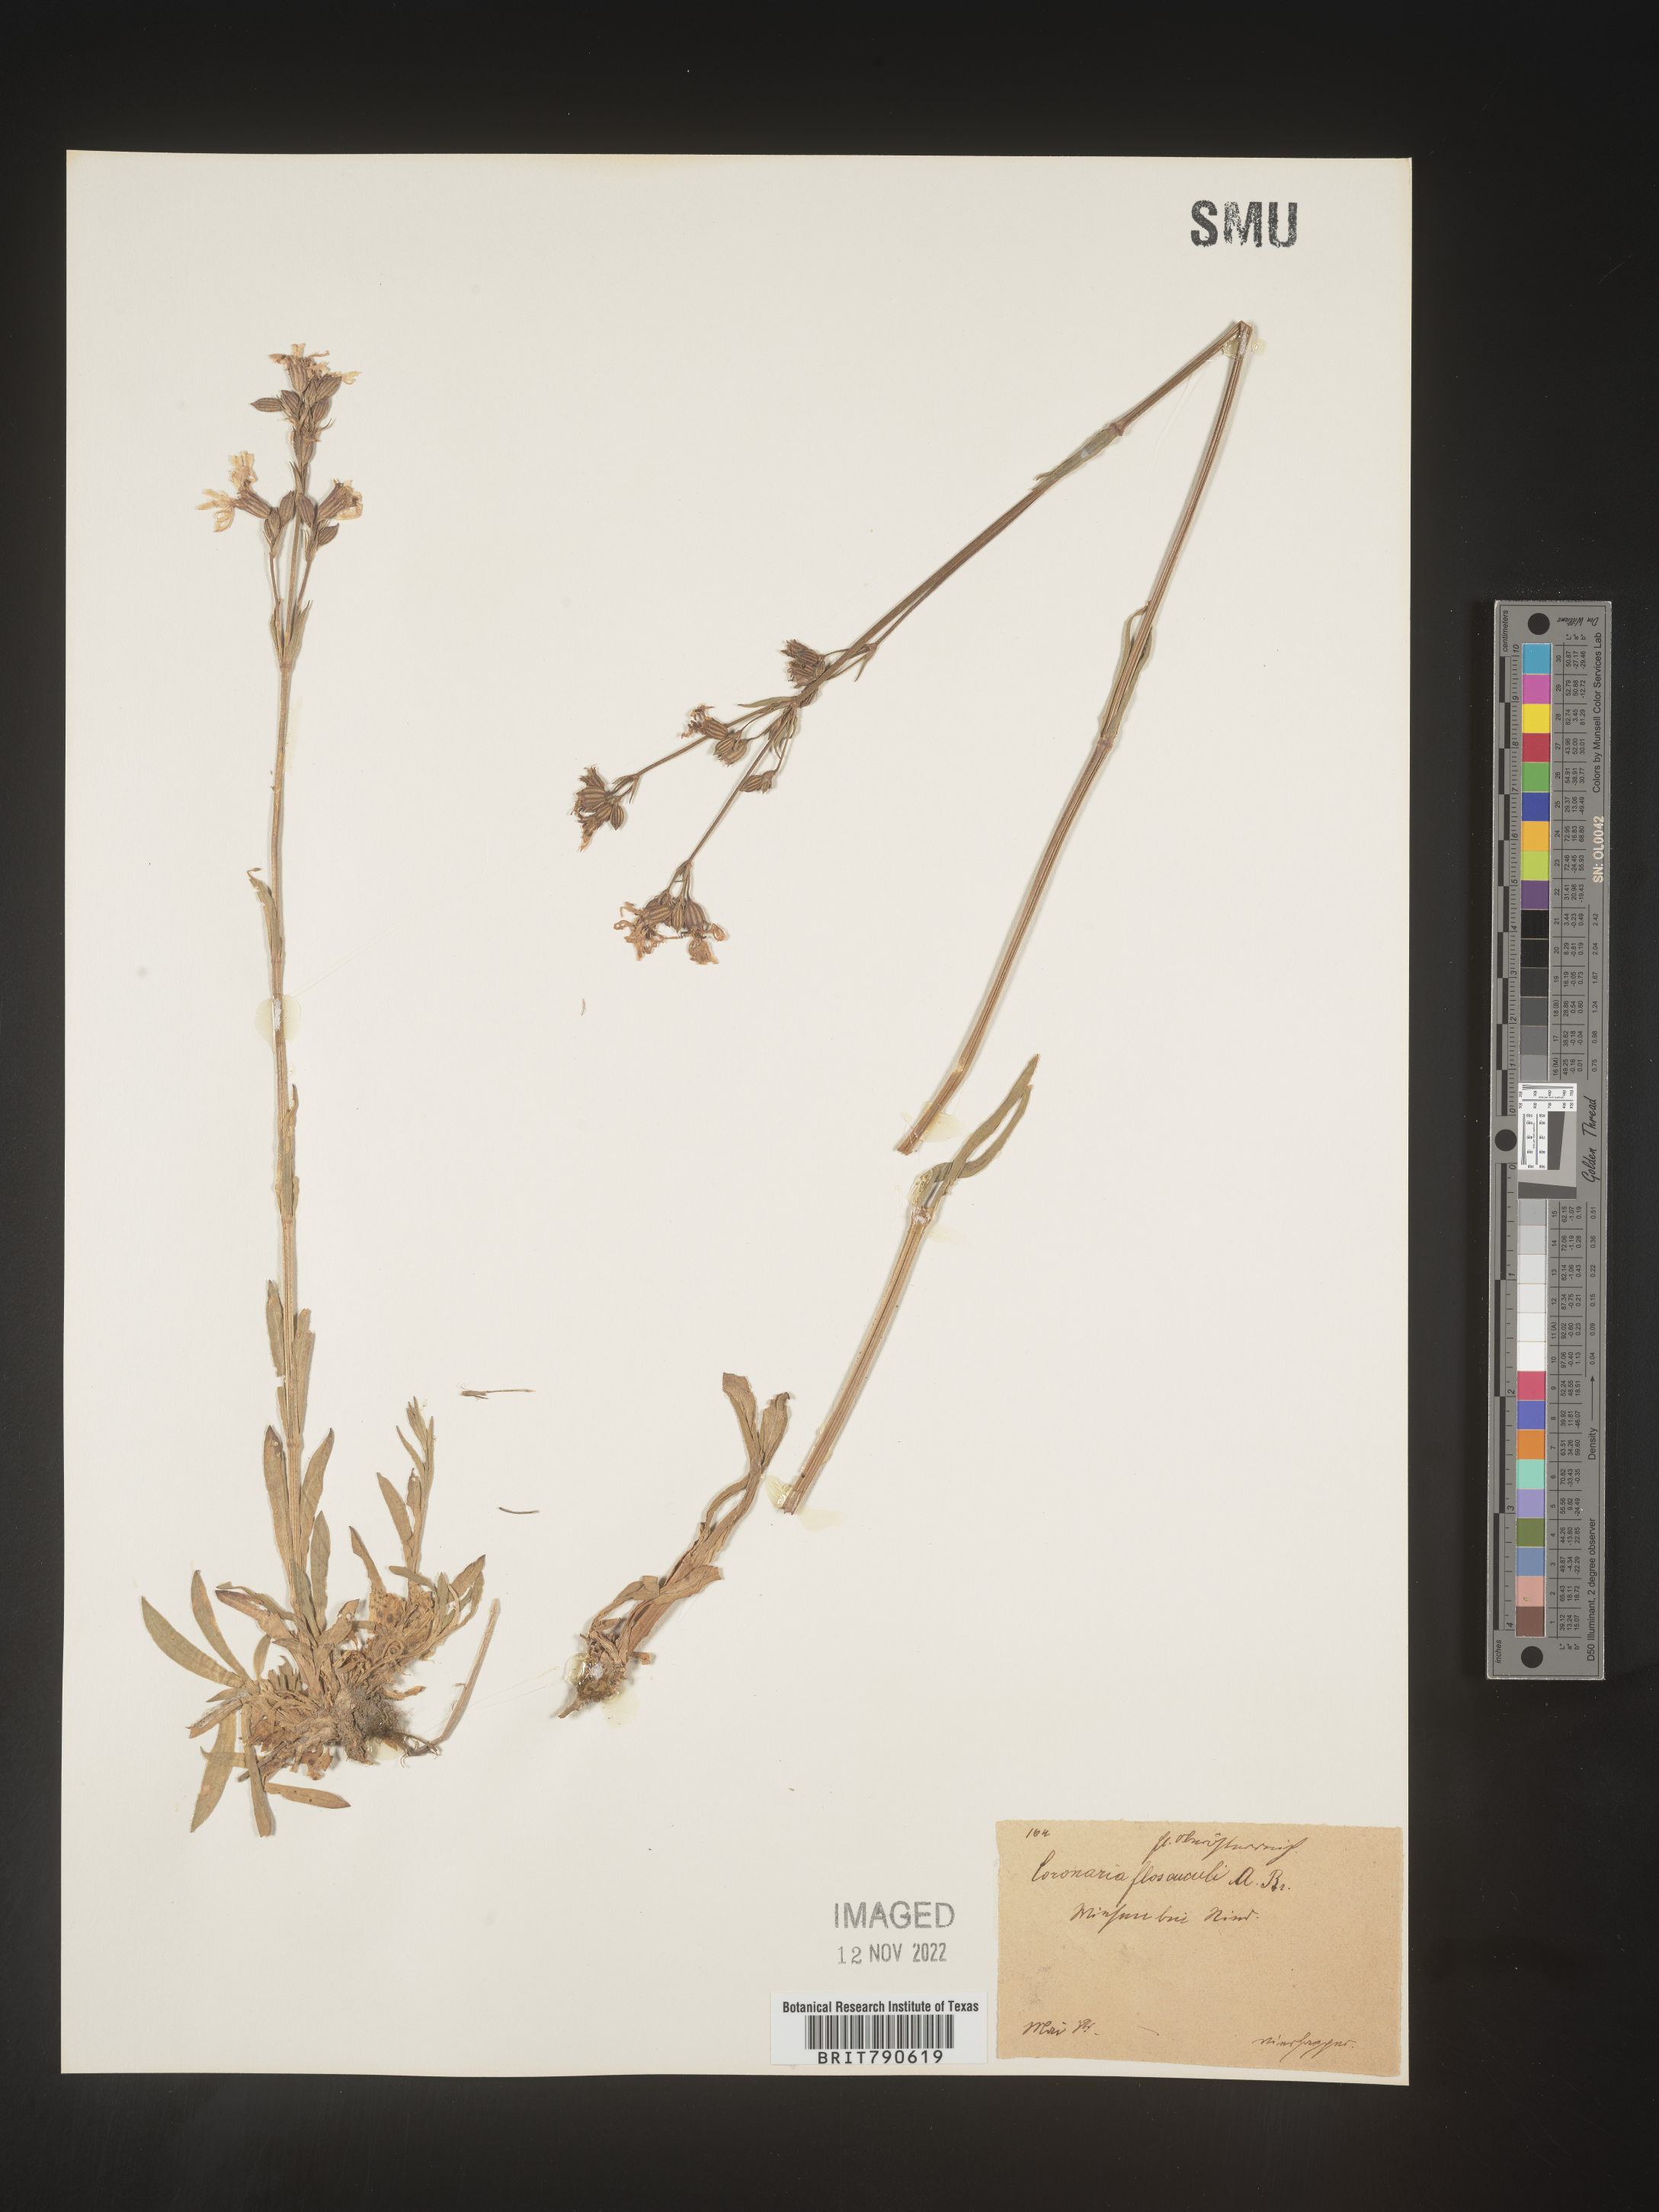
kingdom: Plantae
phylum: Tracheophyta
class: Magnoliopsida
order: Caryophyllales
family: Caryophyllaceae
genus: Silene
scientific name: Silene
